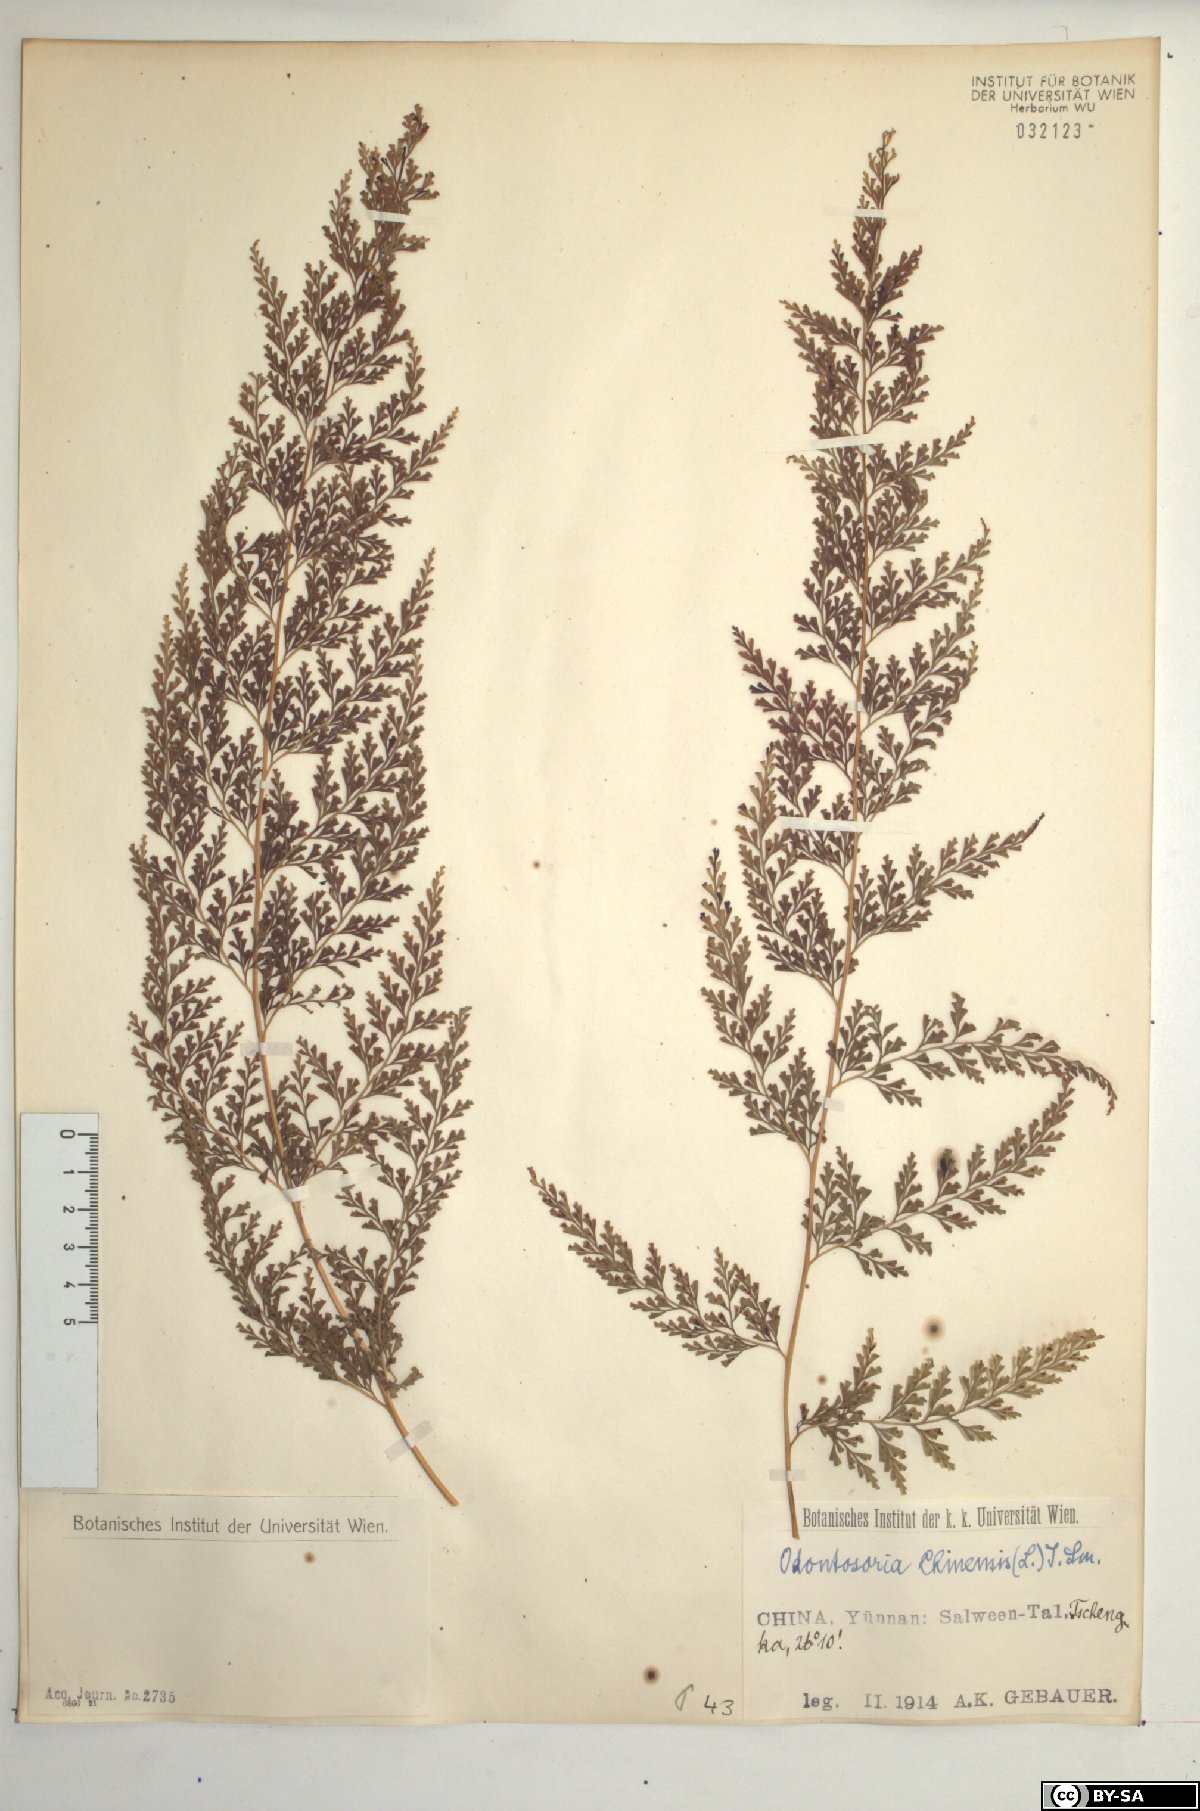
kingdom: Plantae
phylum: Tracheophyta
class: Polypodiopsida
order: Polypodiales
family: Lindsaeaceae
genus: Odontosoria
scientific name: Odontosoria chinensis
